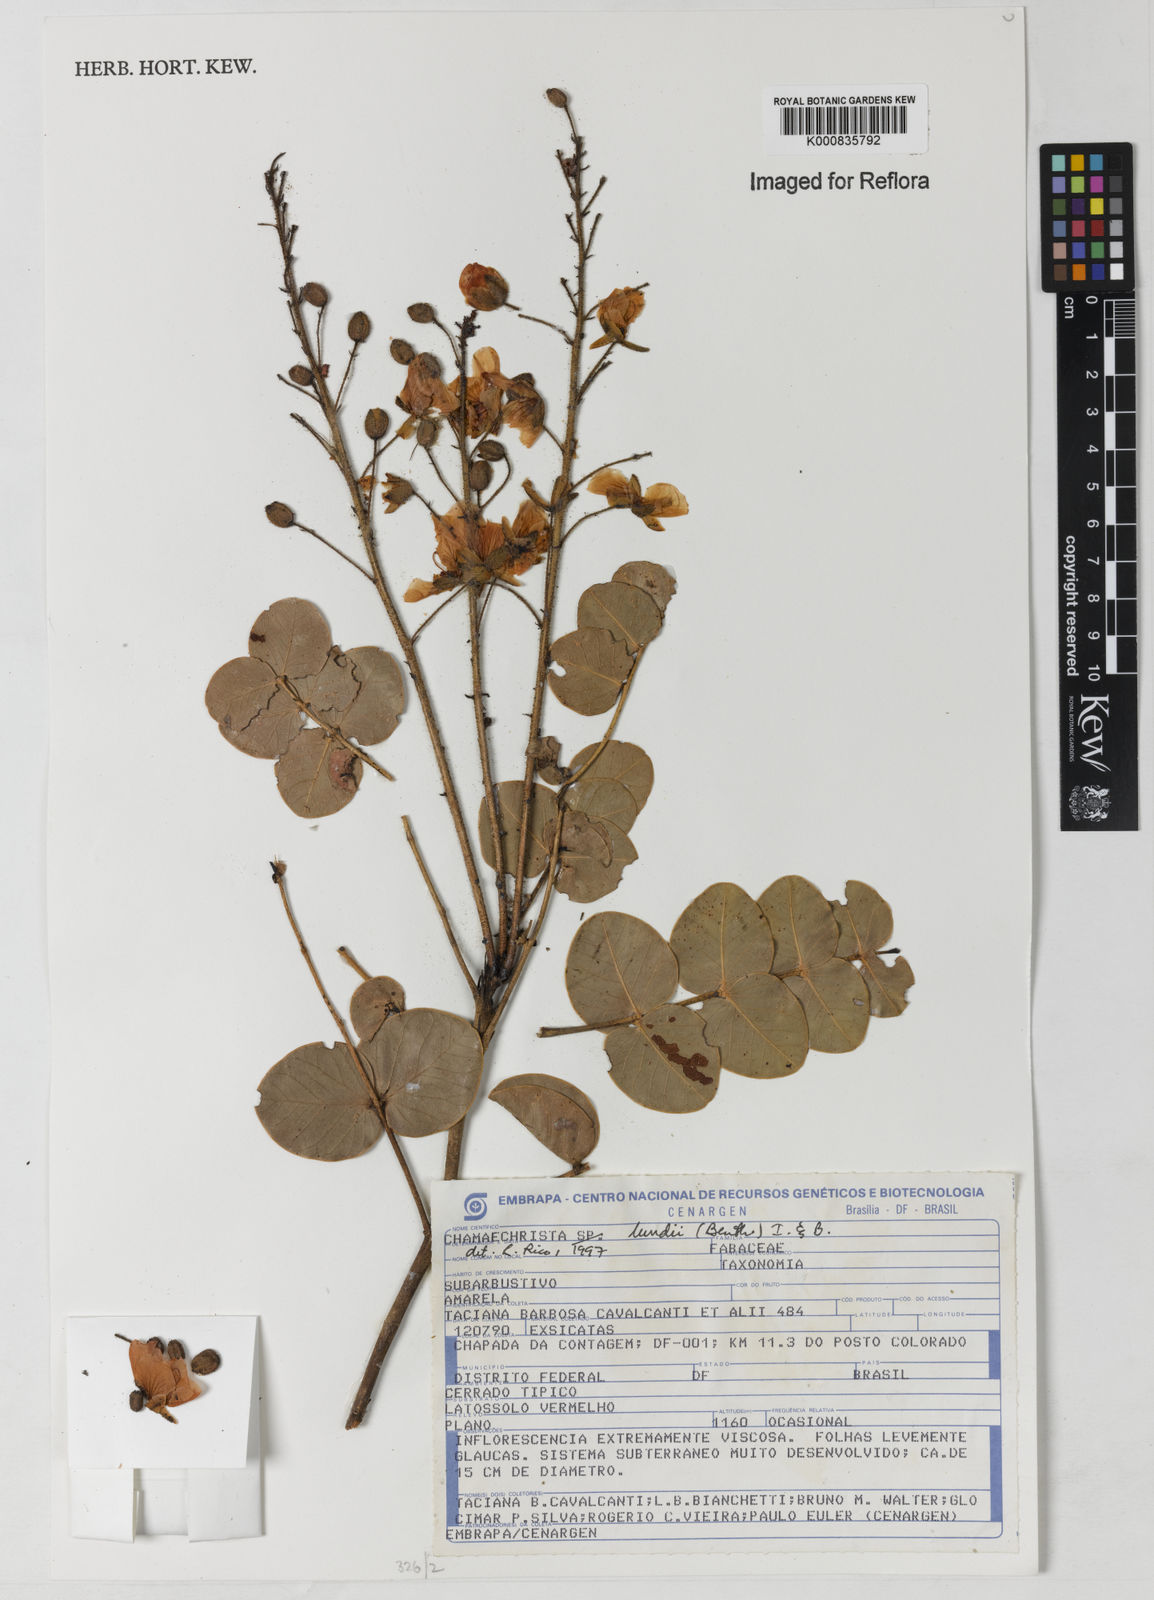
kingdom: Plantae
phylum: Tracheophyta
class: Magnoliopsida
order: Fabales
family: Fabaceae
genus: Chamaecrista
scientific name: Chamaecrista lundii
